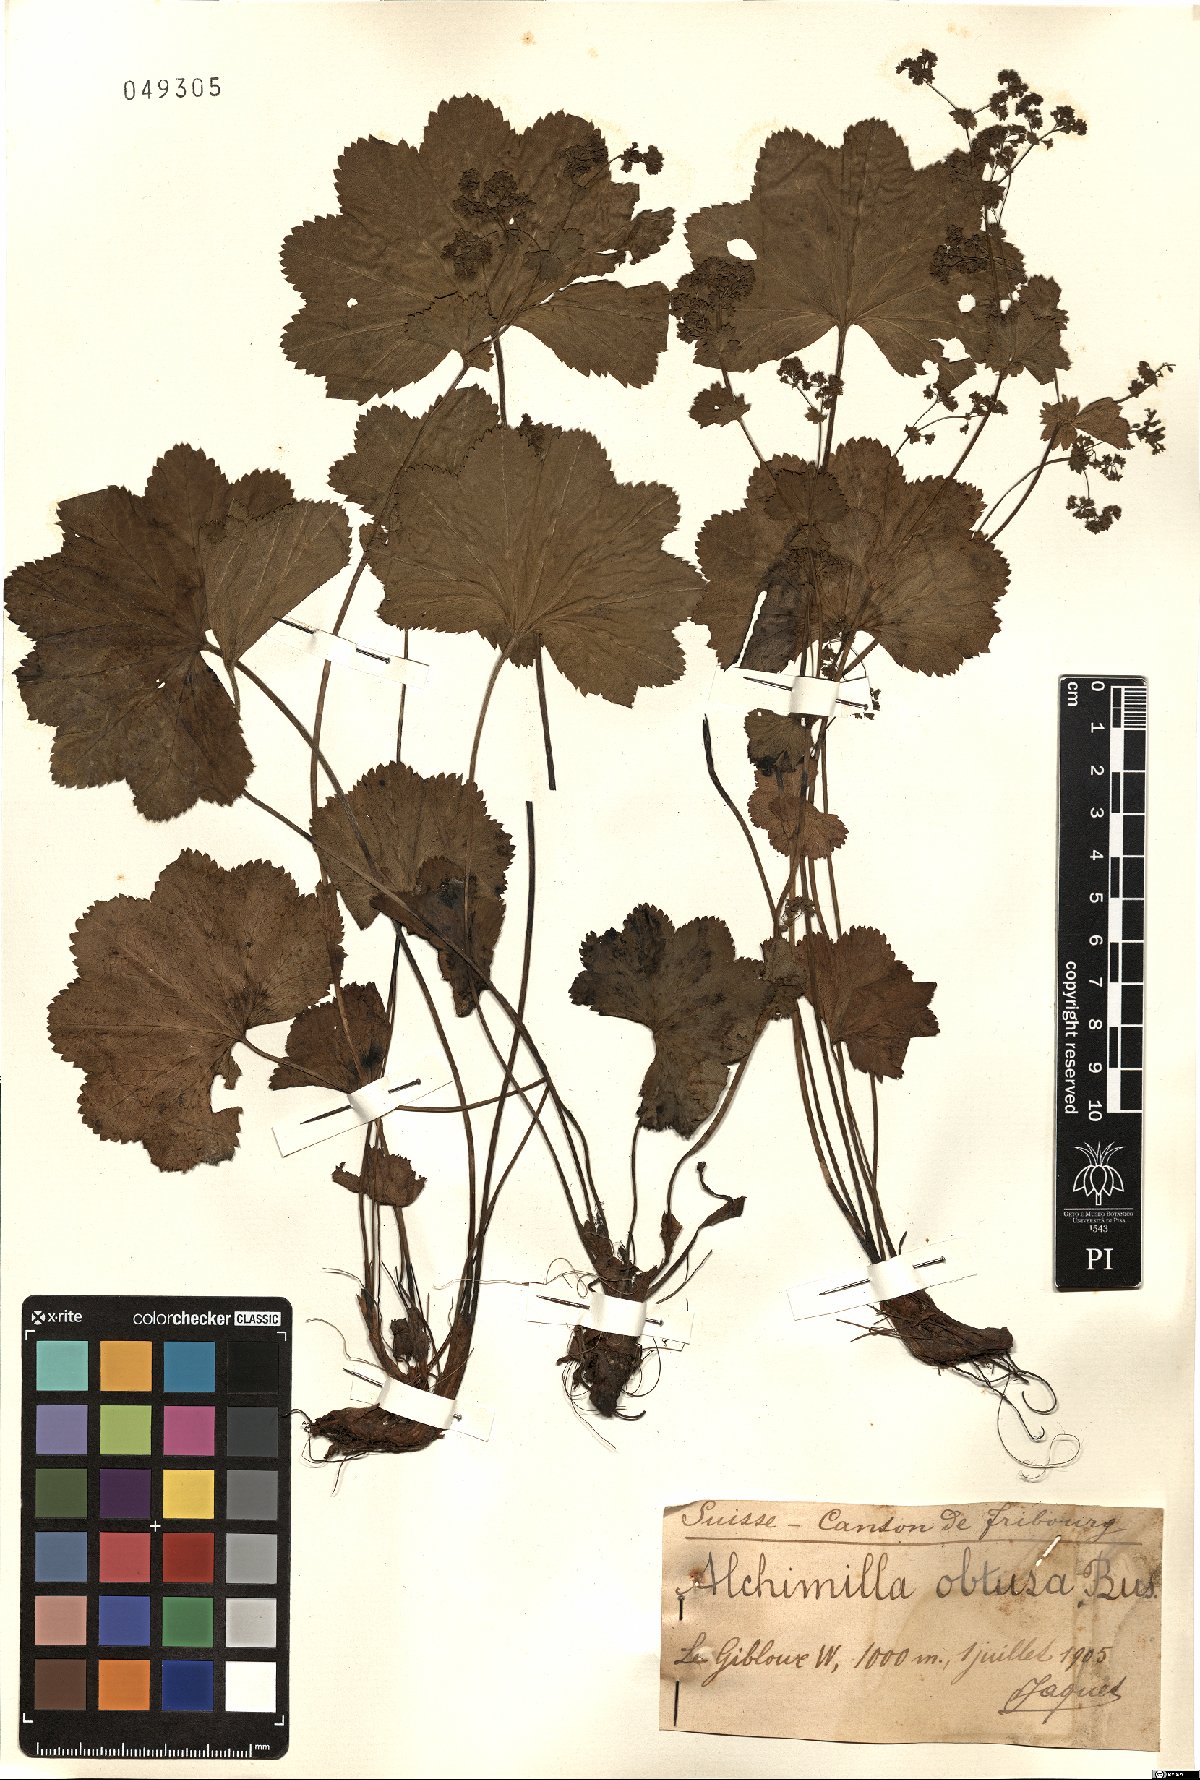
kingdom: Plantae
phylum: Tracheophyta
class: Magnoliopsida
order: Rosales
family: Rosaceae
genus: Alchemilla
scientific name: Alchemilla obtusa
